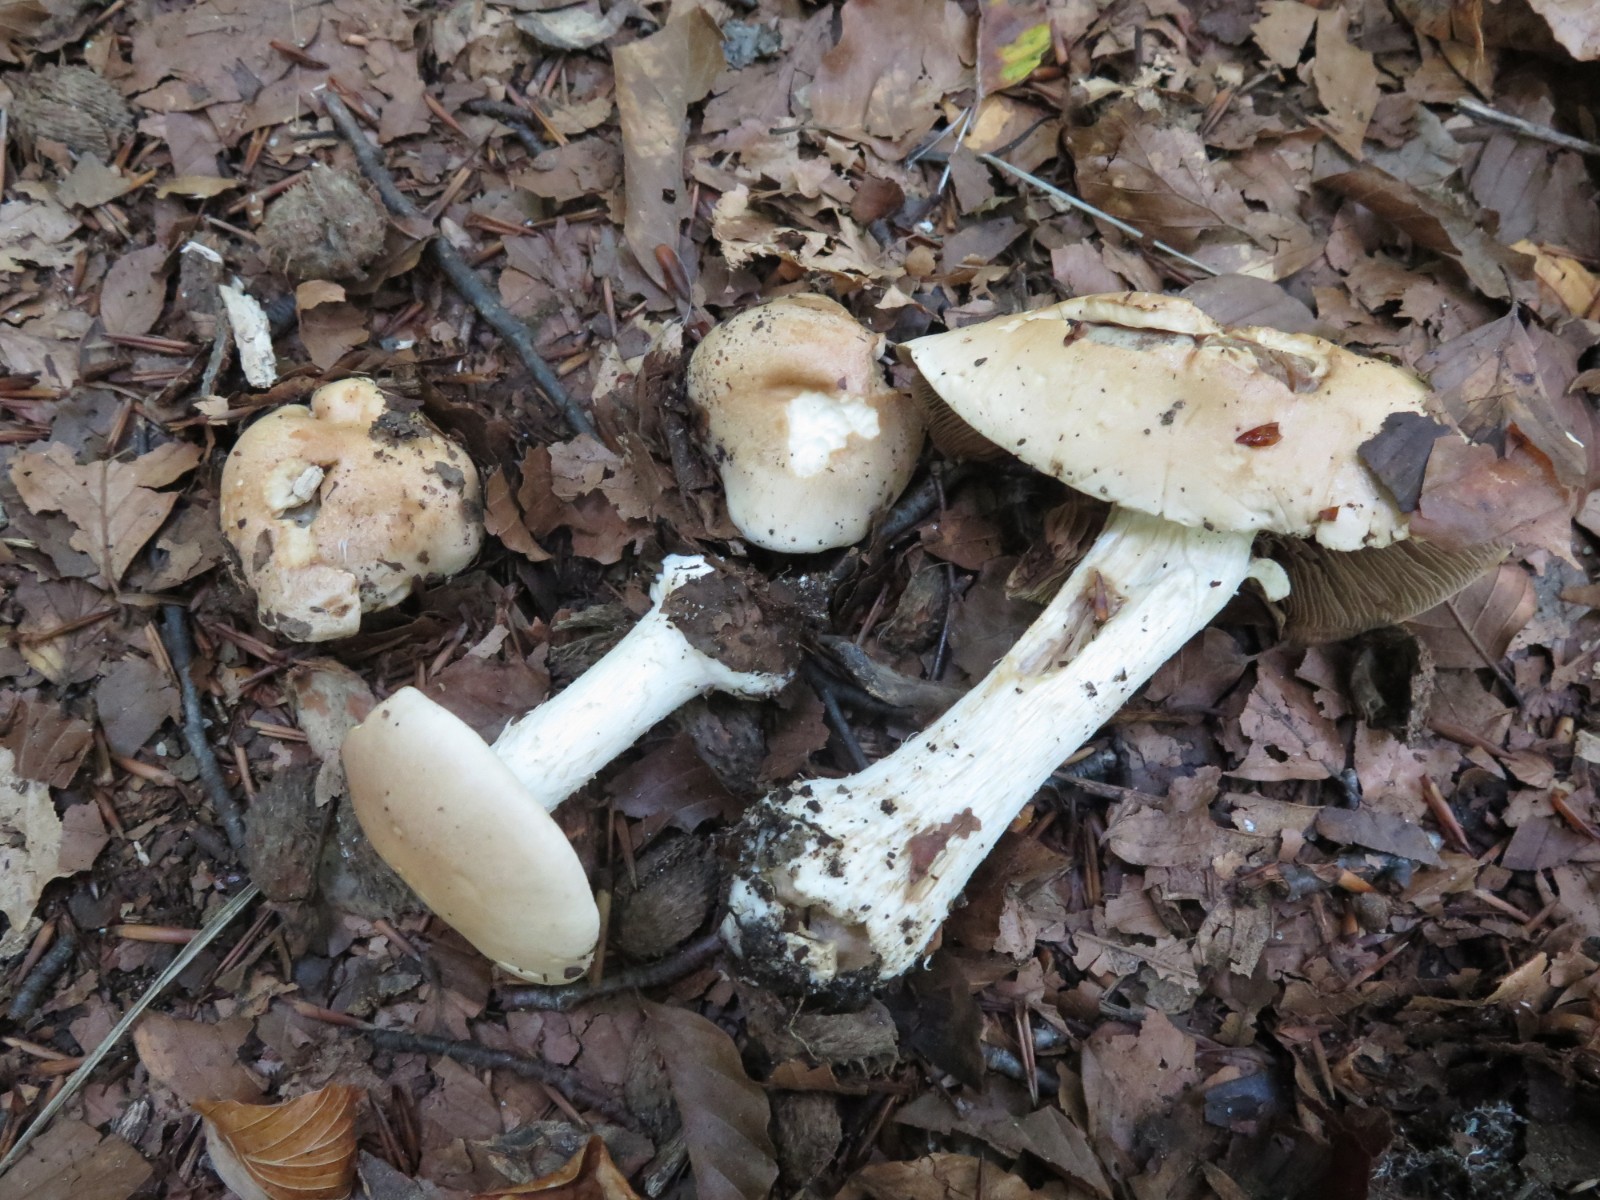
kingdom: Fungi
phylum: Basidiomycota
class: Agaricomycetes
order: Agaricales
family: Hymenogastraceae
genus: Hebeloma
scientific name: Hebeloma sinapizans
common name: ræddike-tåreblad
